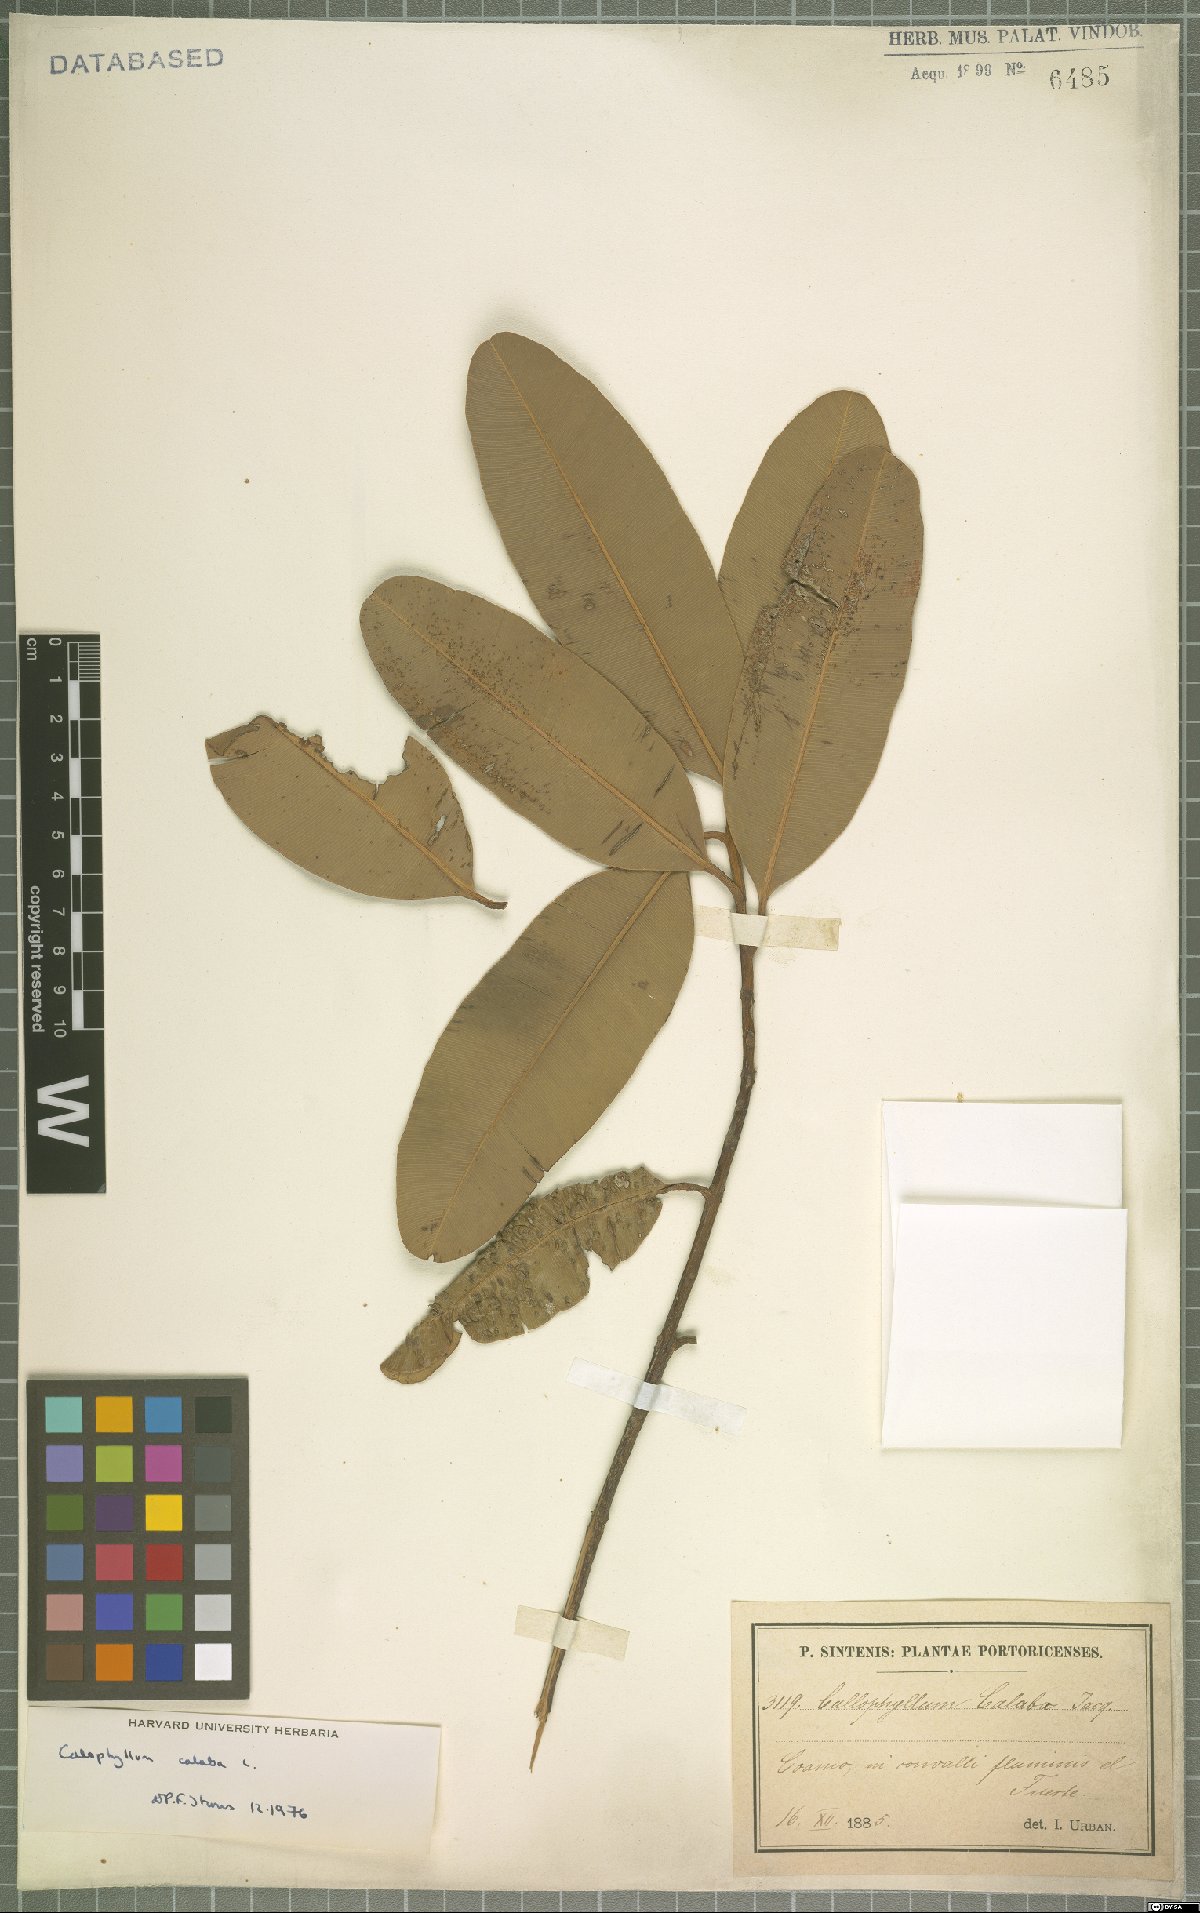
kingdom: Plantae
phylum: Tracheophyta
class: Magnoliopsida
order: Malpighiales
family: Calophyllaceae
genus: Calophyllum
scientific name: Calophyllum calaba
